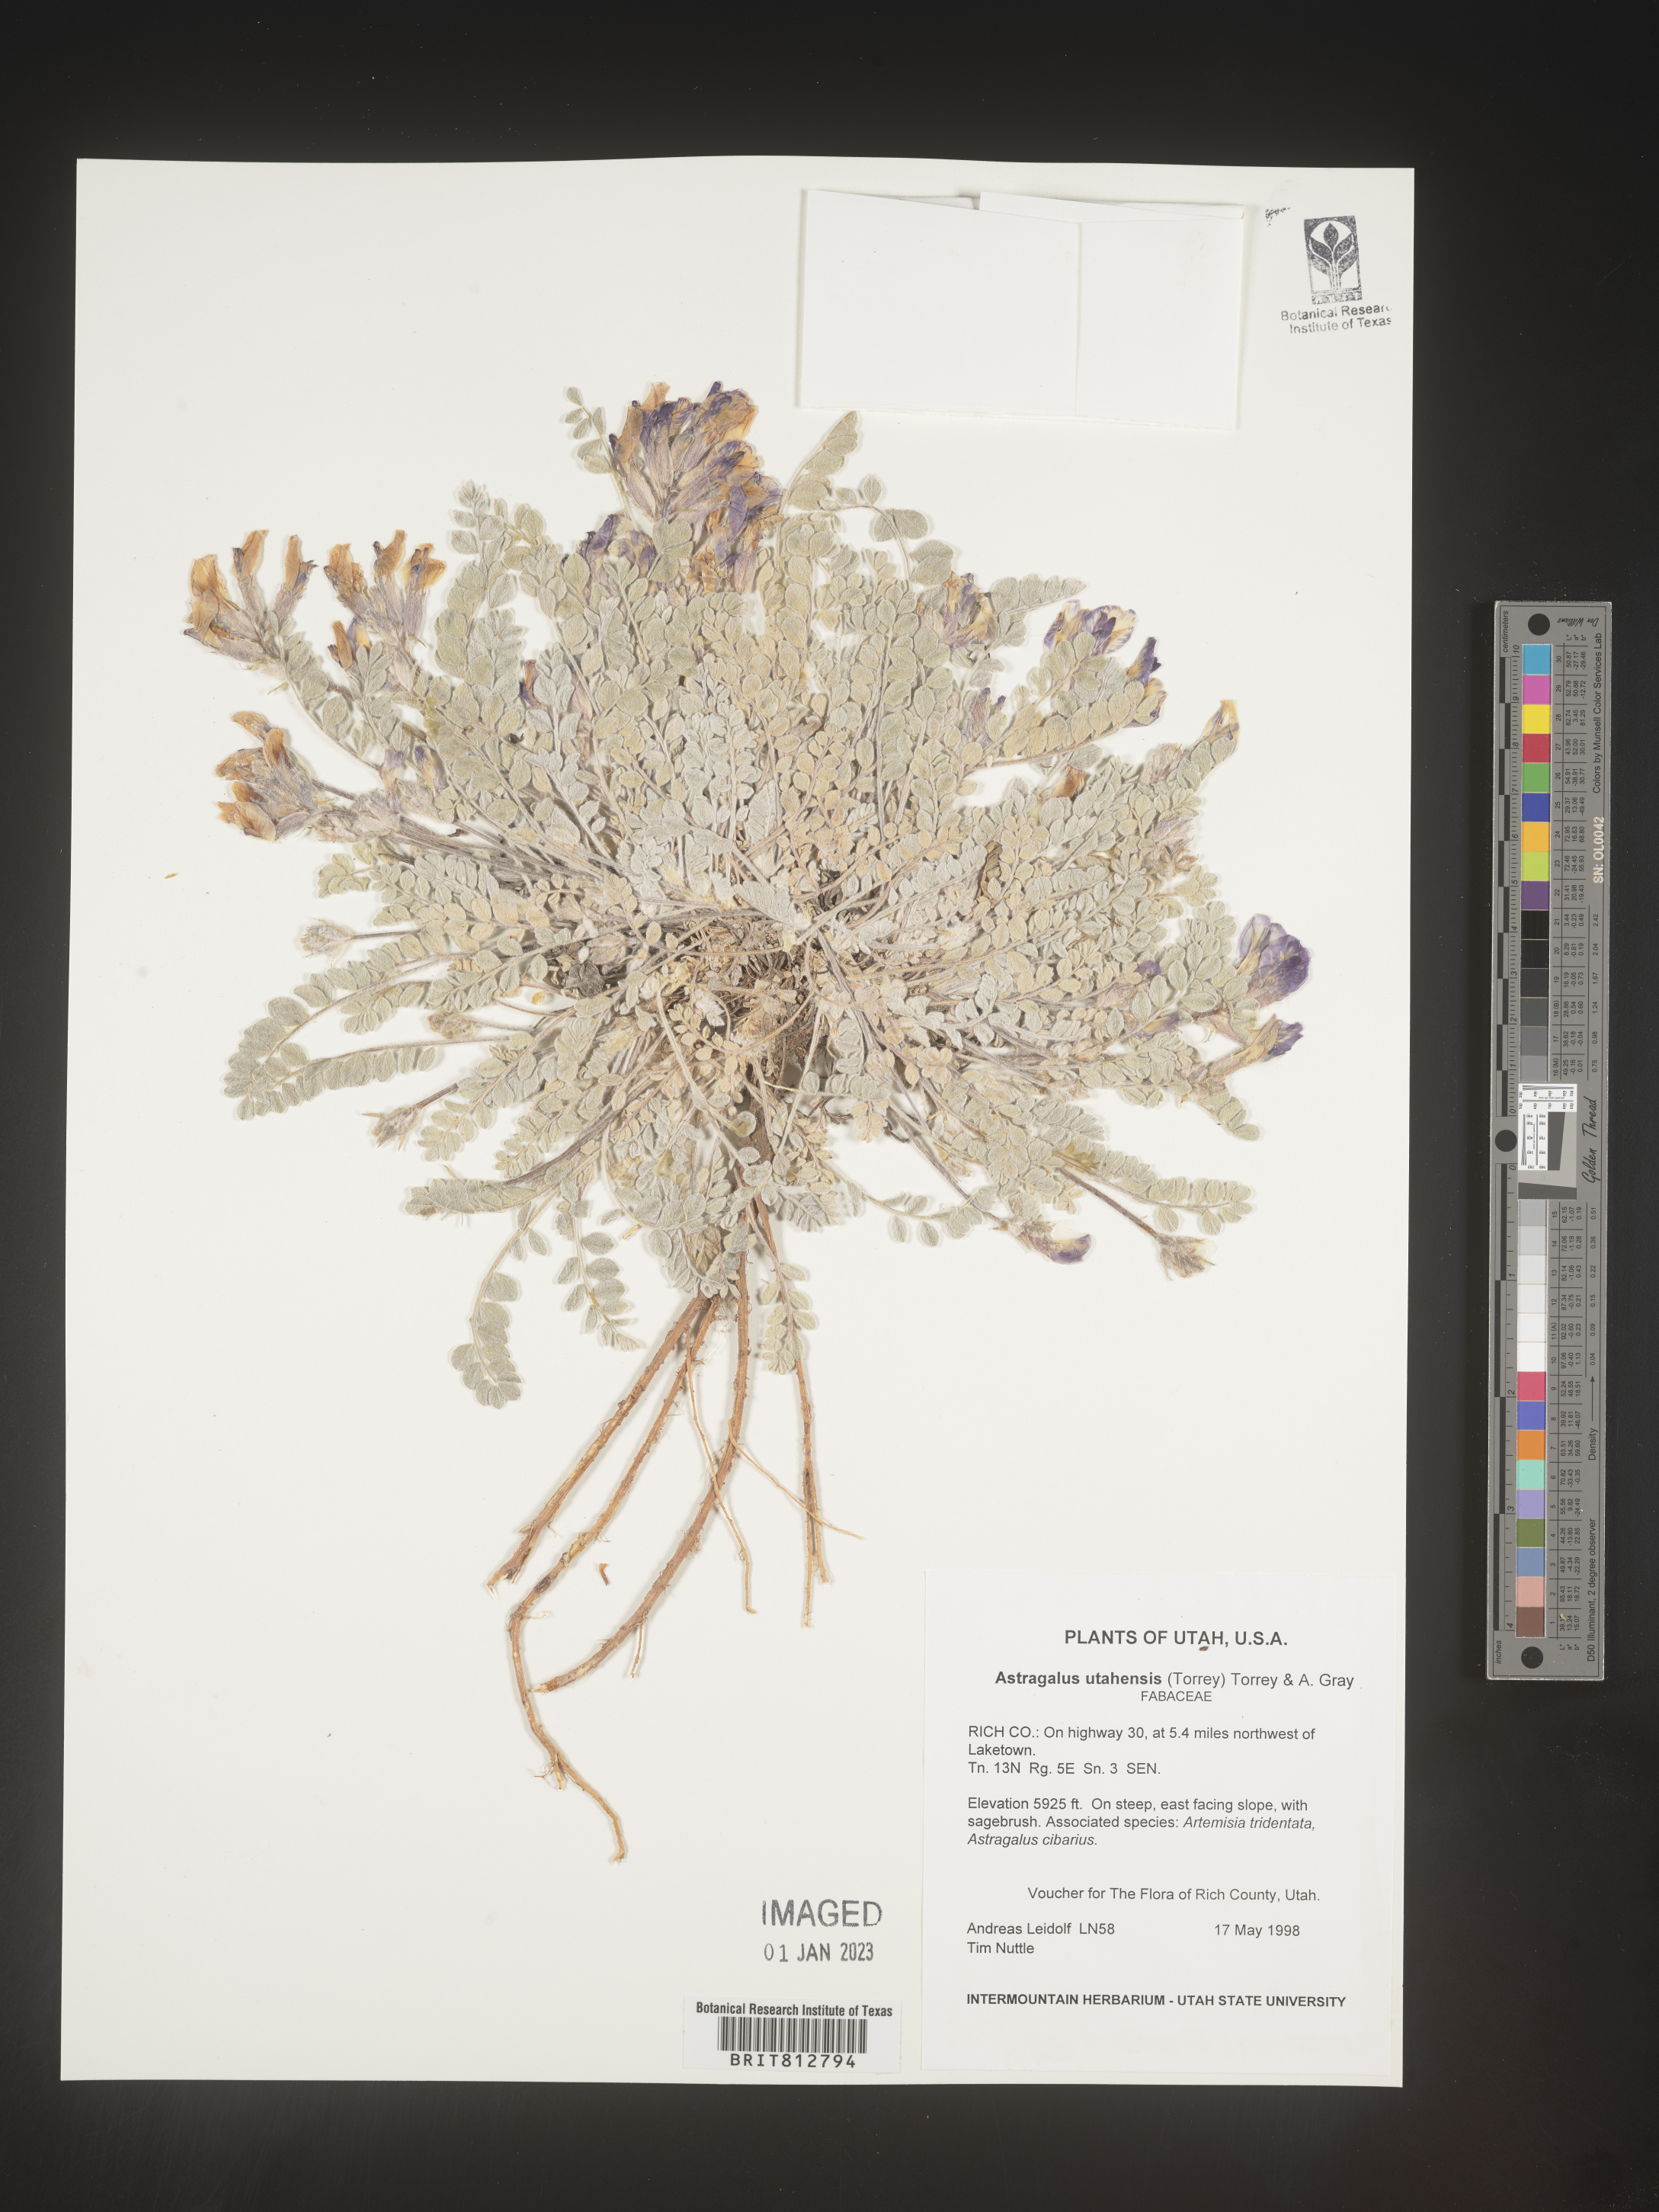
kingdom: Plantae
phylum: Tracheophyta
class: Magnoliopsida
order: Fabales
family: Fabaceae
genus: Astragalus
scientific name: Astragalus
